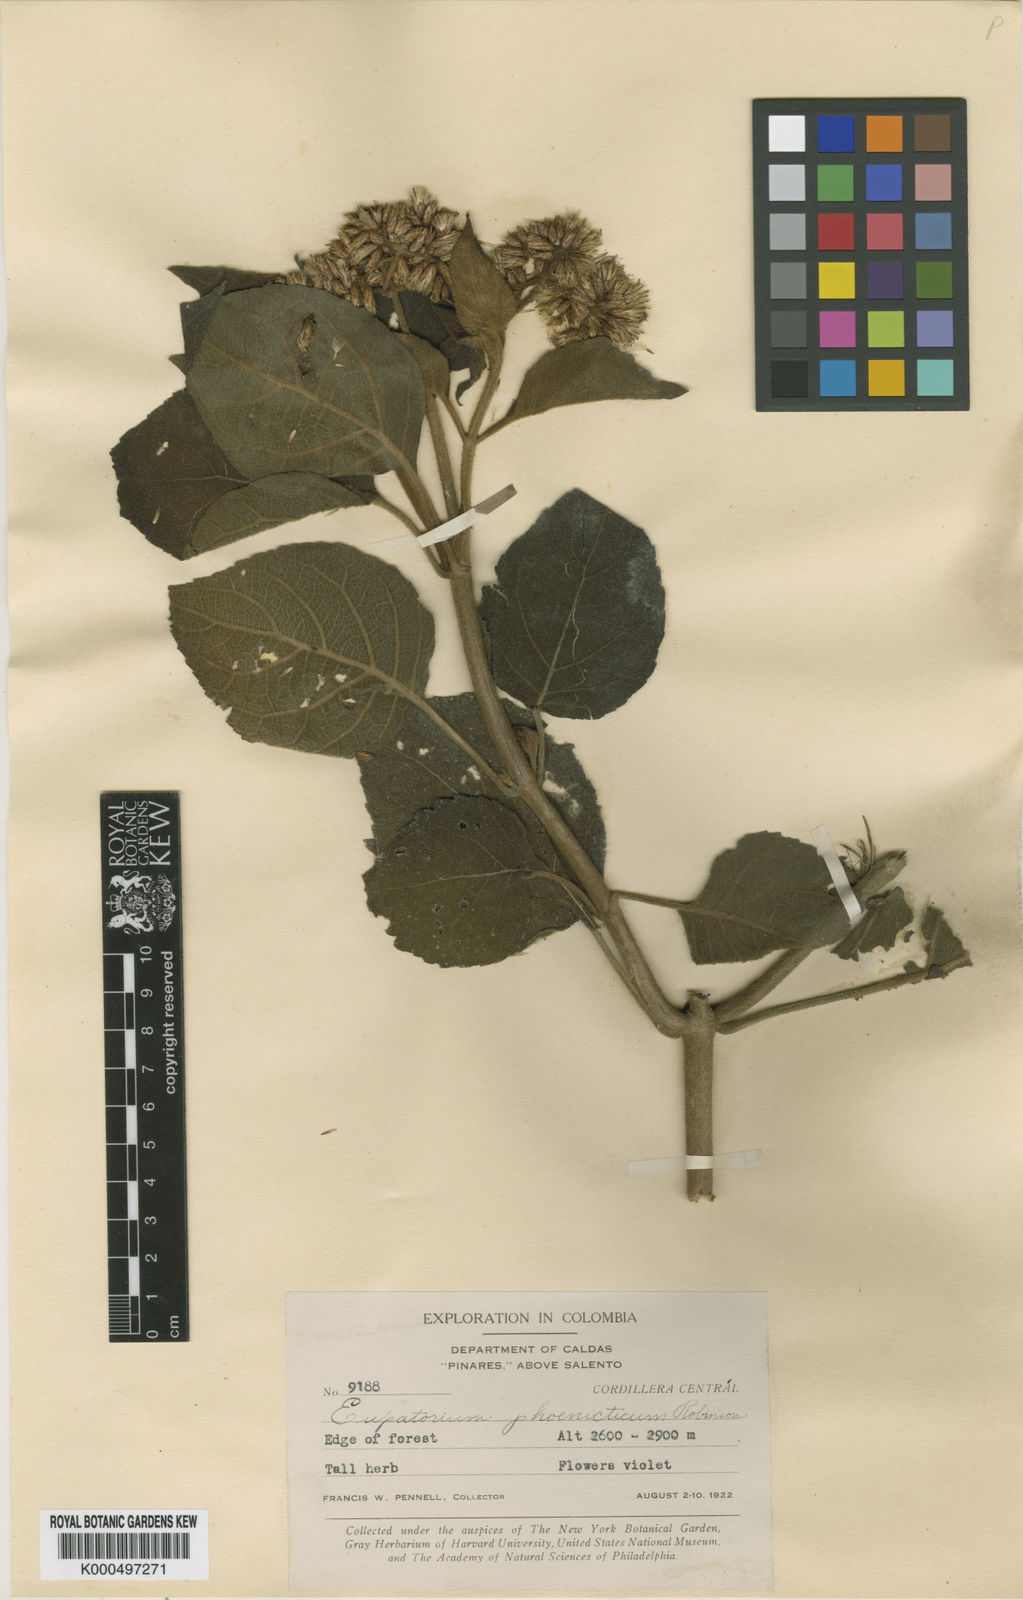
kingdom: Plantae
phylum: Tracheophyta
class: Magnoliopsida
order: Asterales
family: Asteraceae
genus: Hebeclinium
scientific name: Hebeclinium phoenicticum
